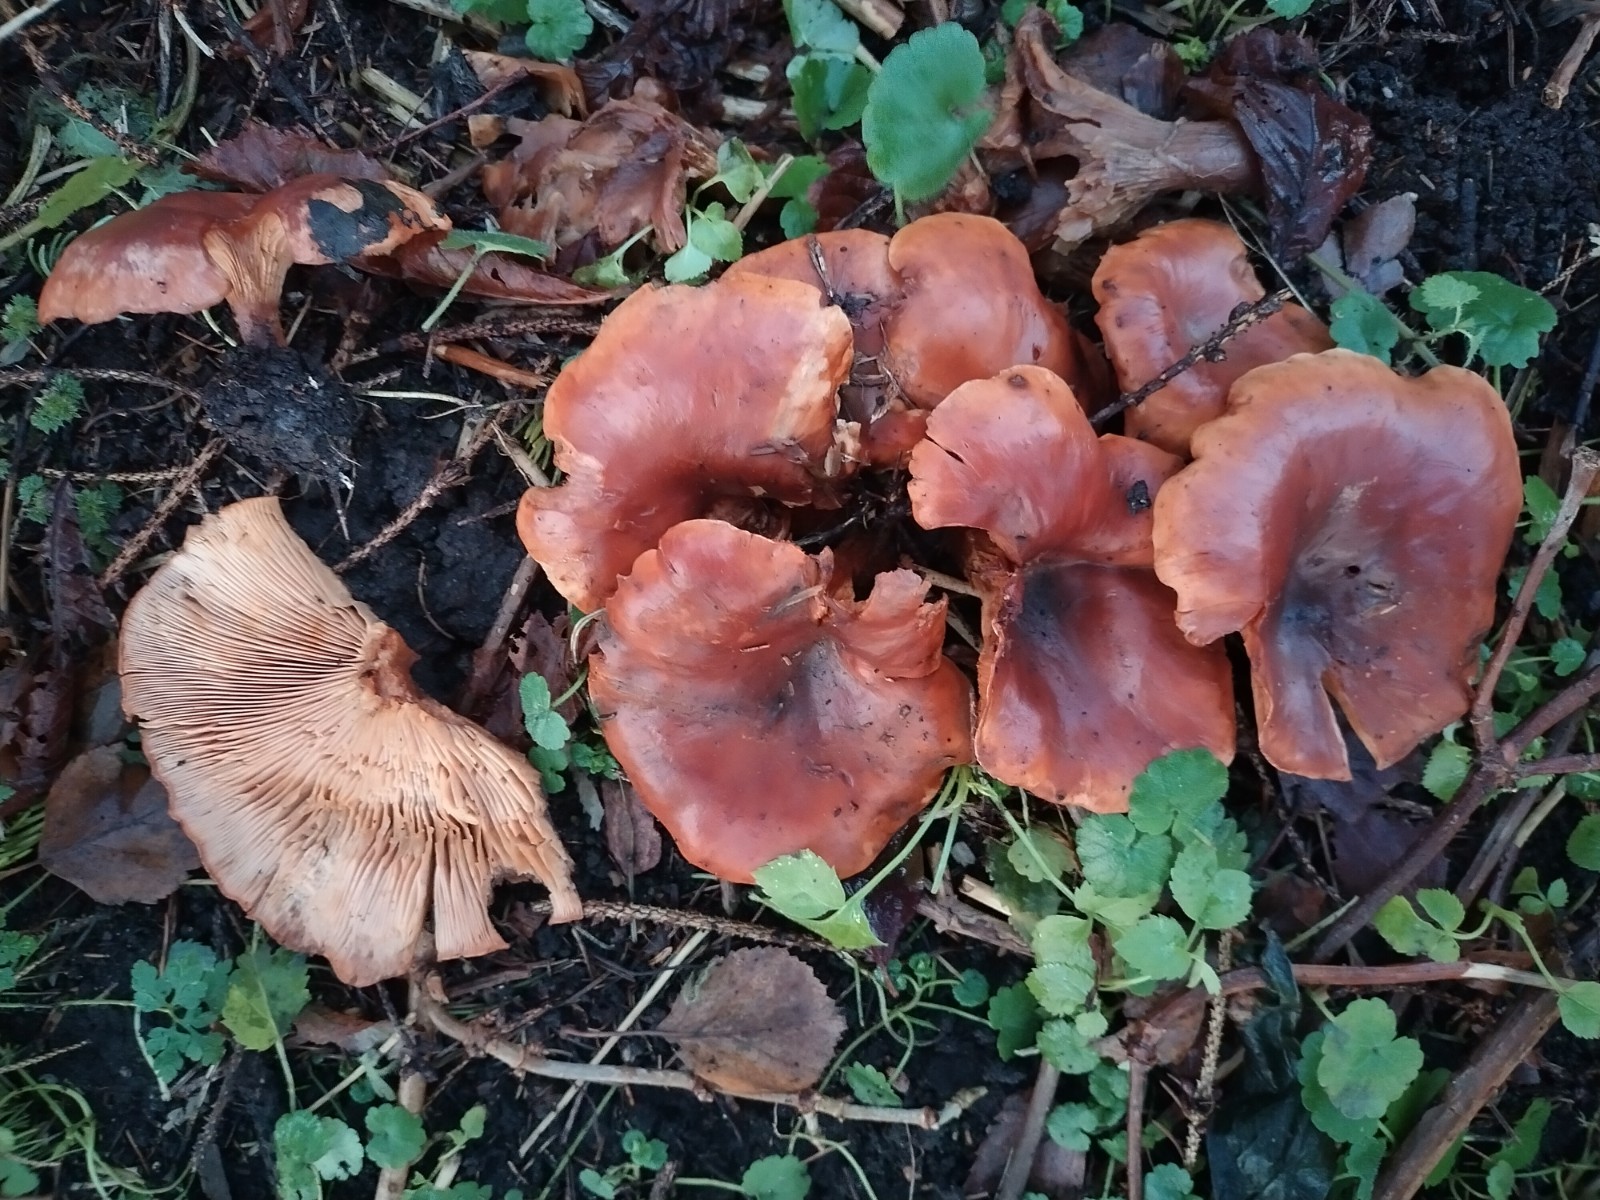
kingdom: Fungi
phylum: Basidiomycota
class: Agaricomycetes
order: Agaricales
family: Tricholomataceae
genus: Paralepista
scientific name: Paralepista flaccida
